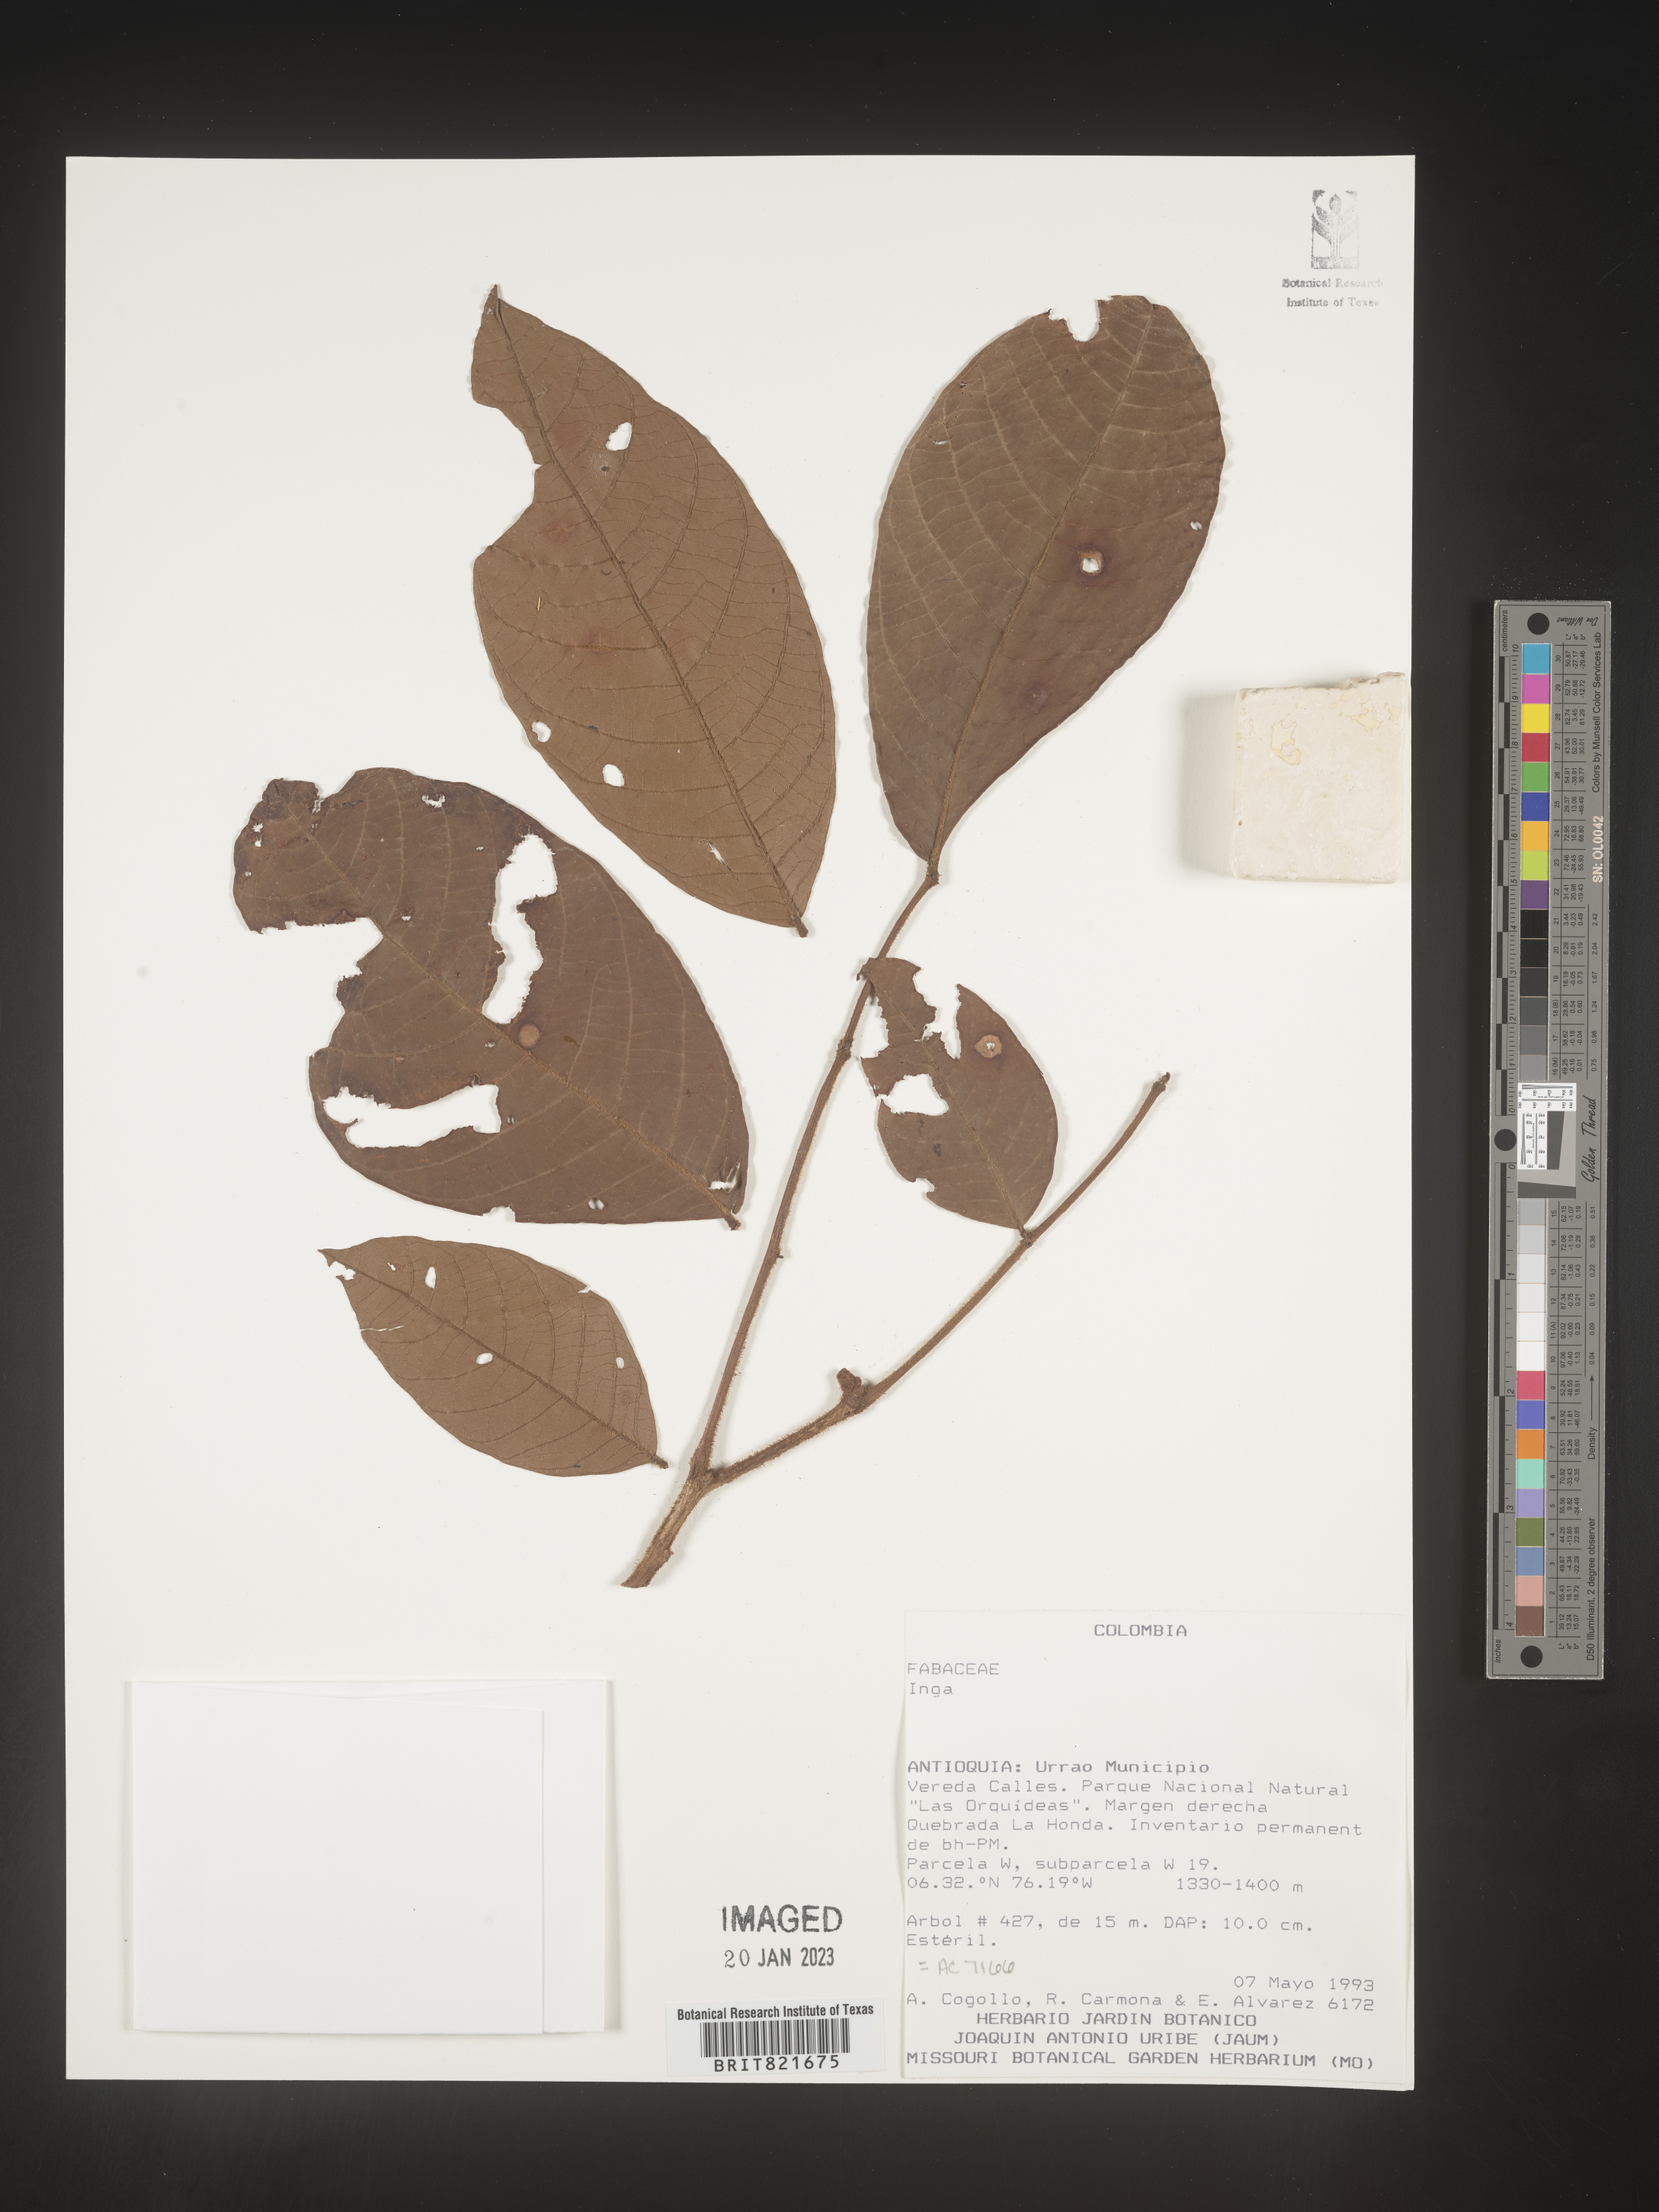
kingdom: Plantae
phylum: Tracheophyta
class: Magnoliopsida
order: Fabales
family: Fabaceae
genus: Inga
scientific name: Inga
